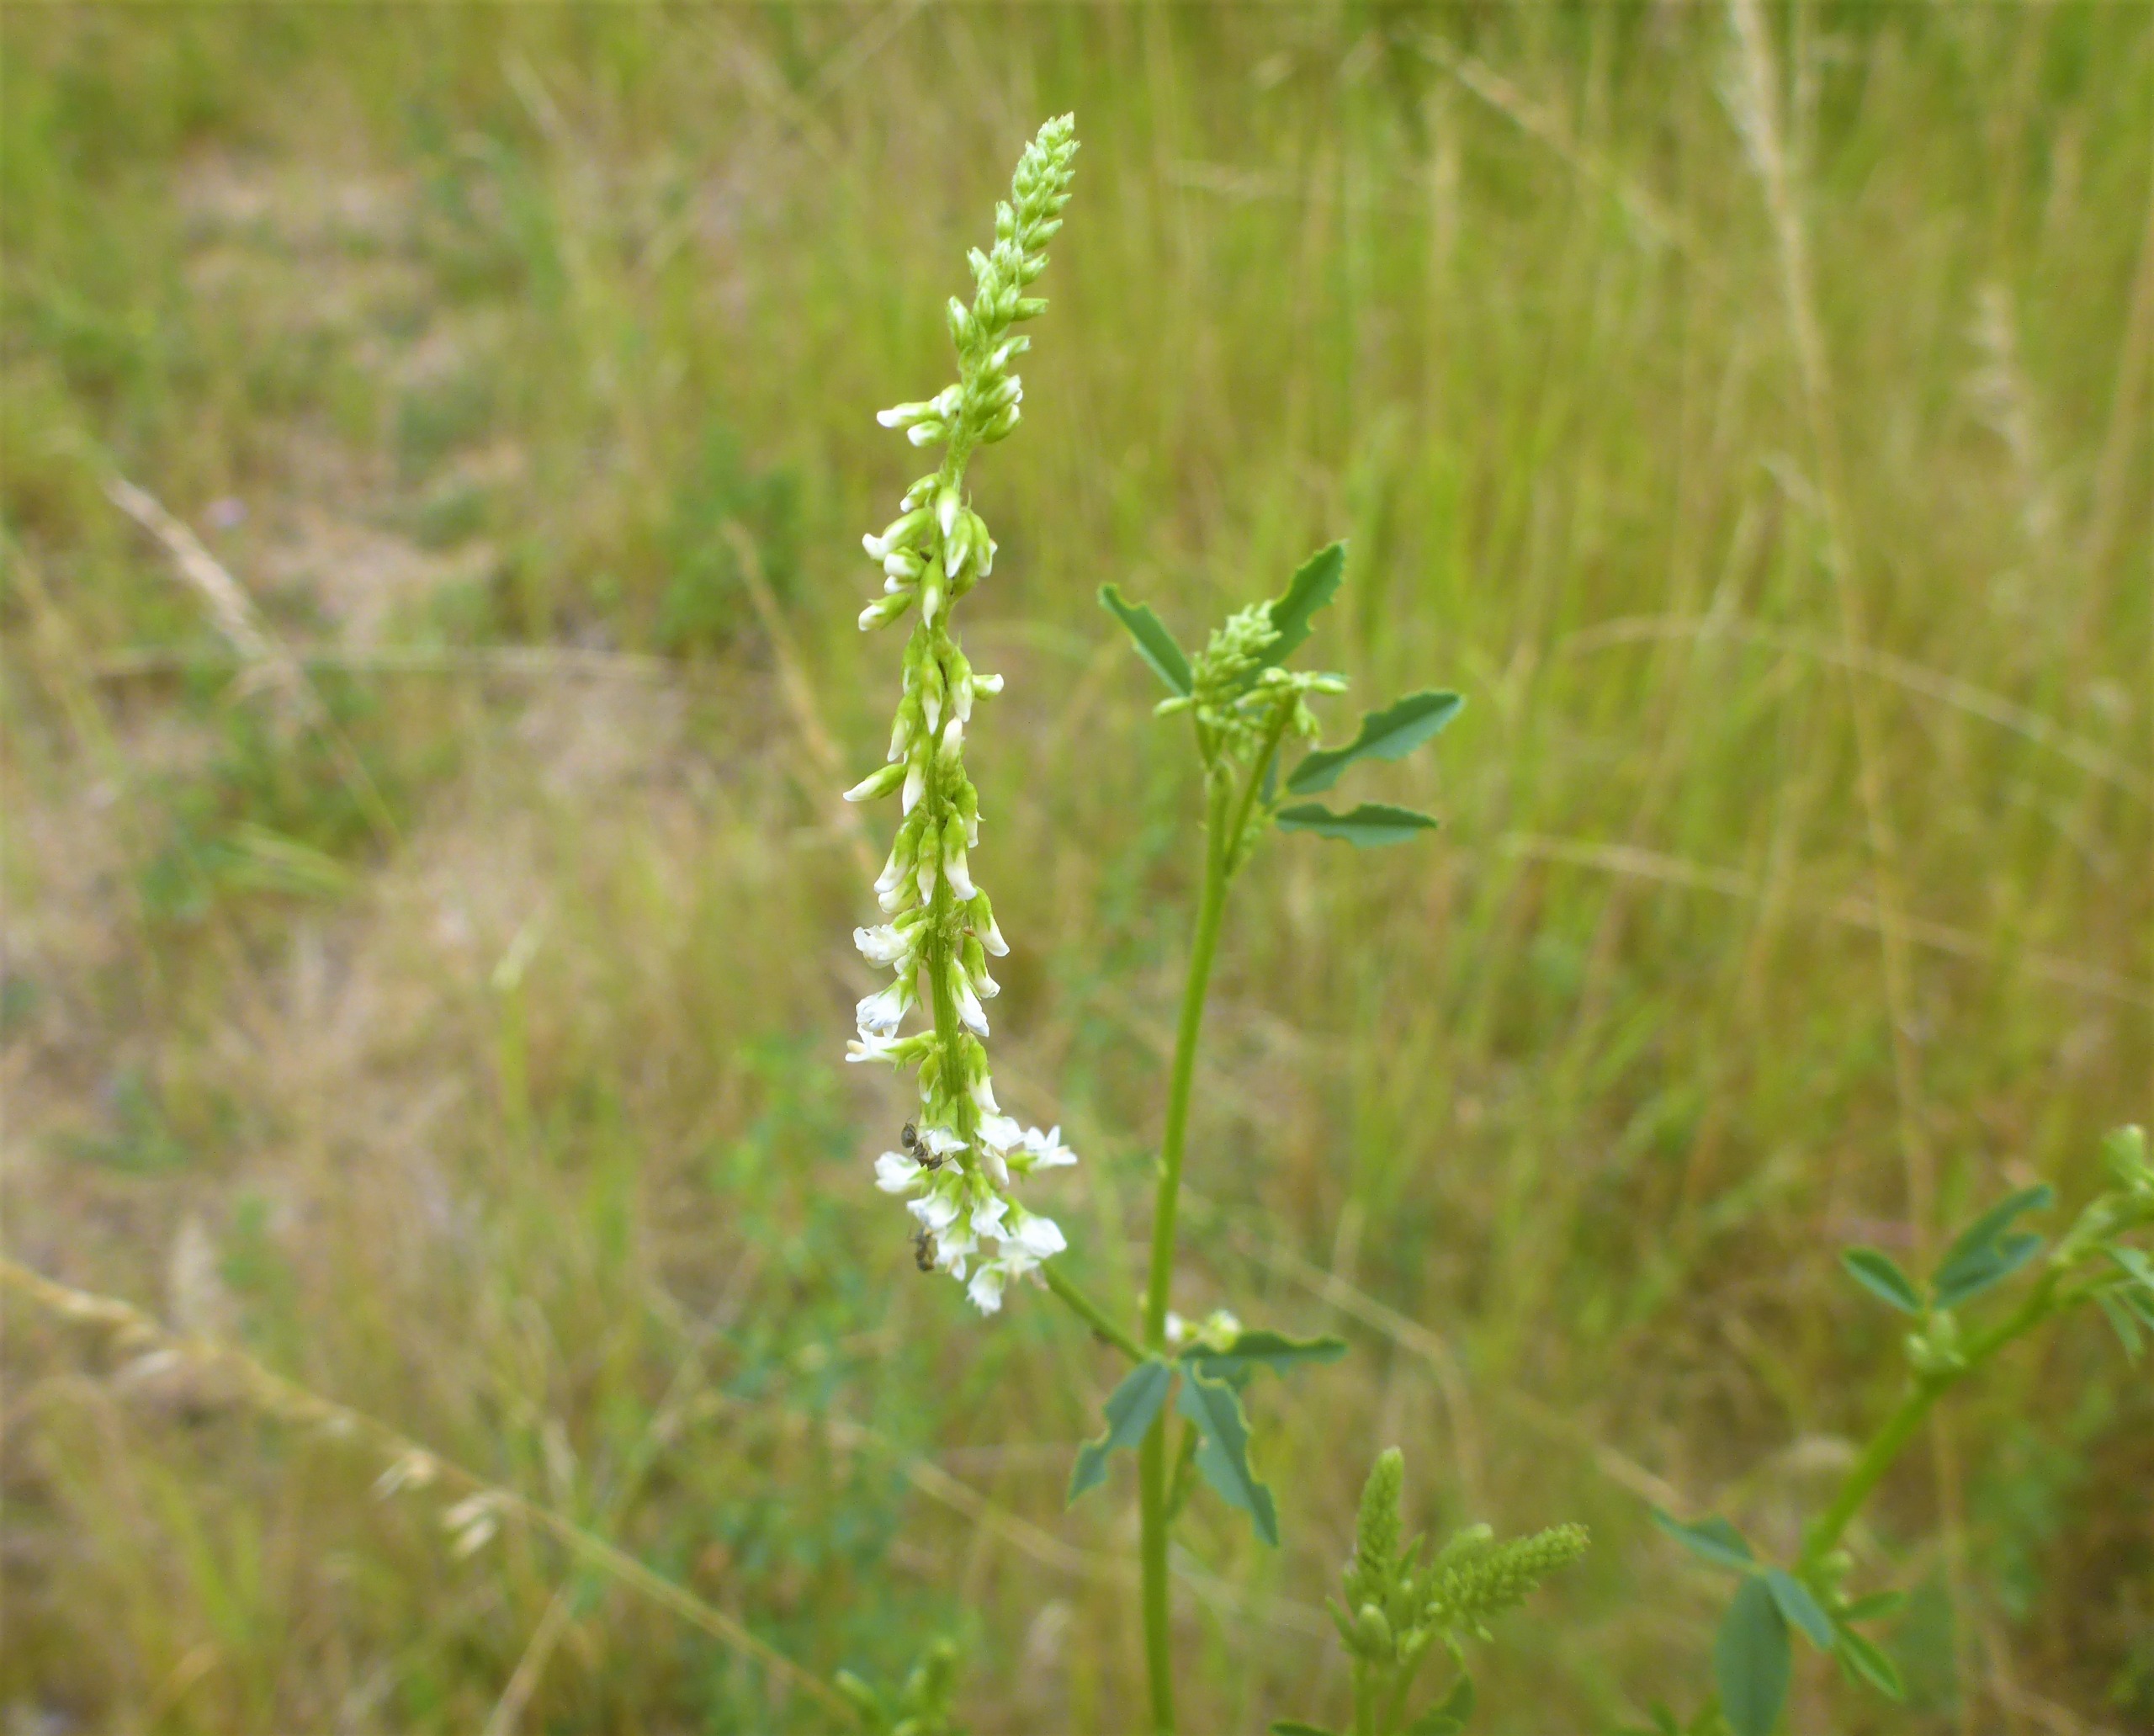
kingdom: Plantae
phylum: Tracheophyta
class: Magnoliopsida
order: Fabales
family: Fabaceae
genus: Melilotus
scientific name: Melilotus albus
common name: Hvid stenkløver
